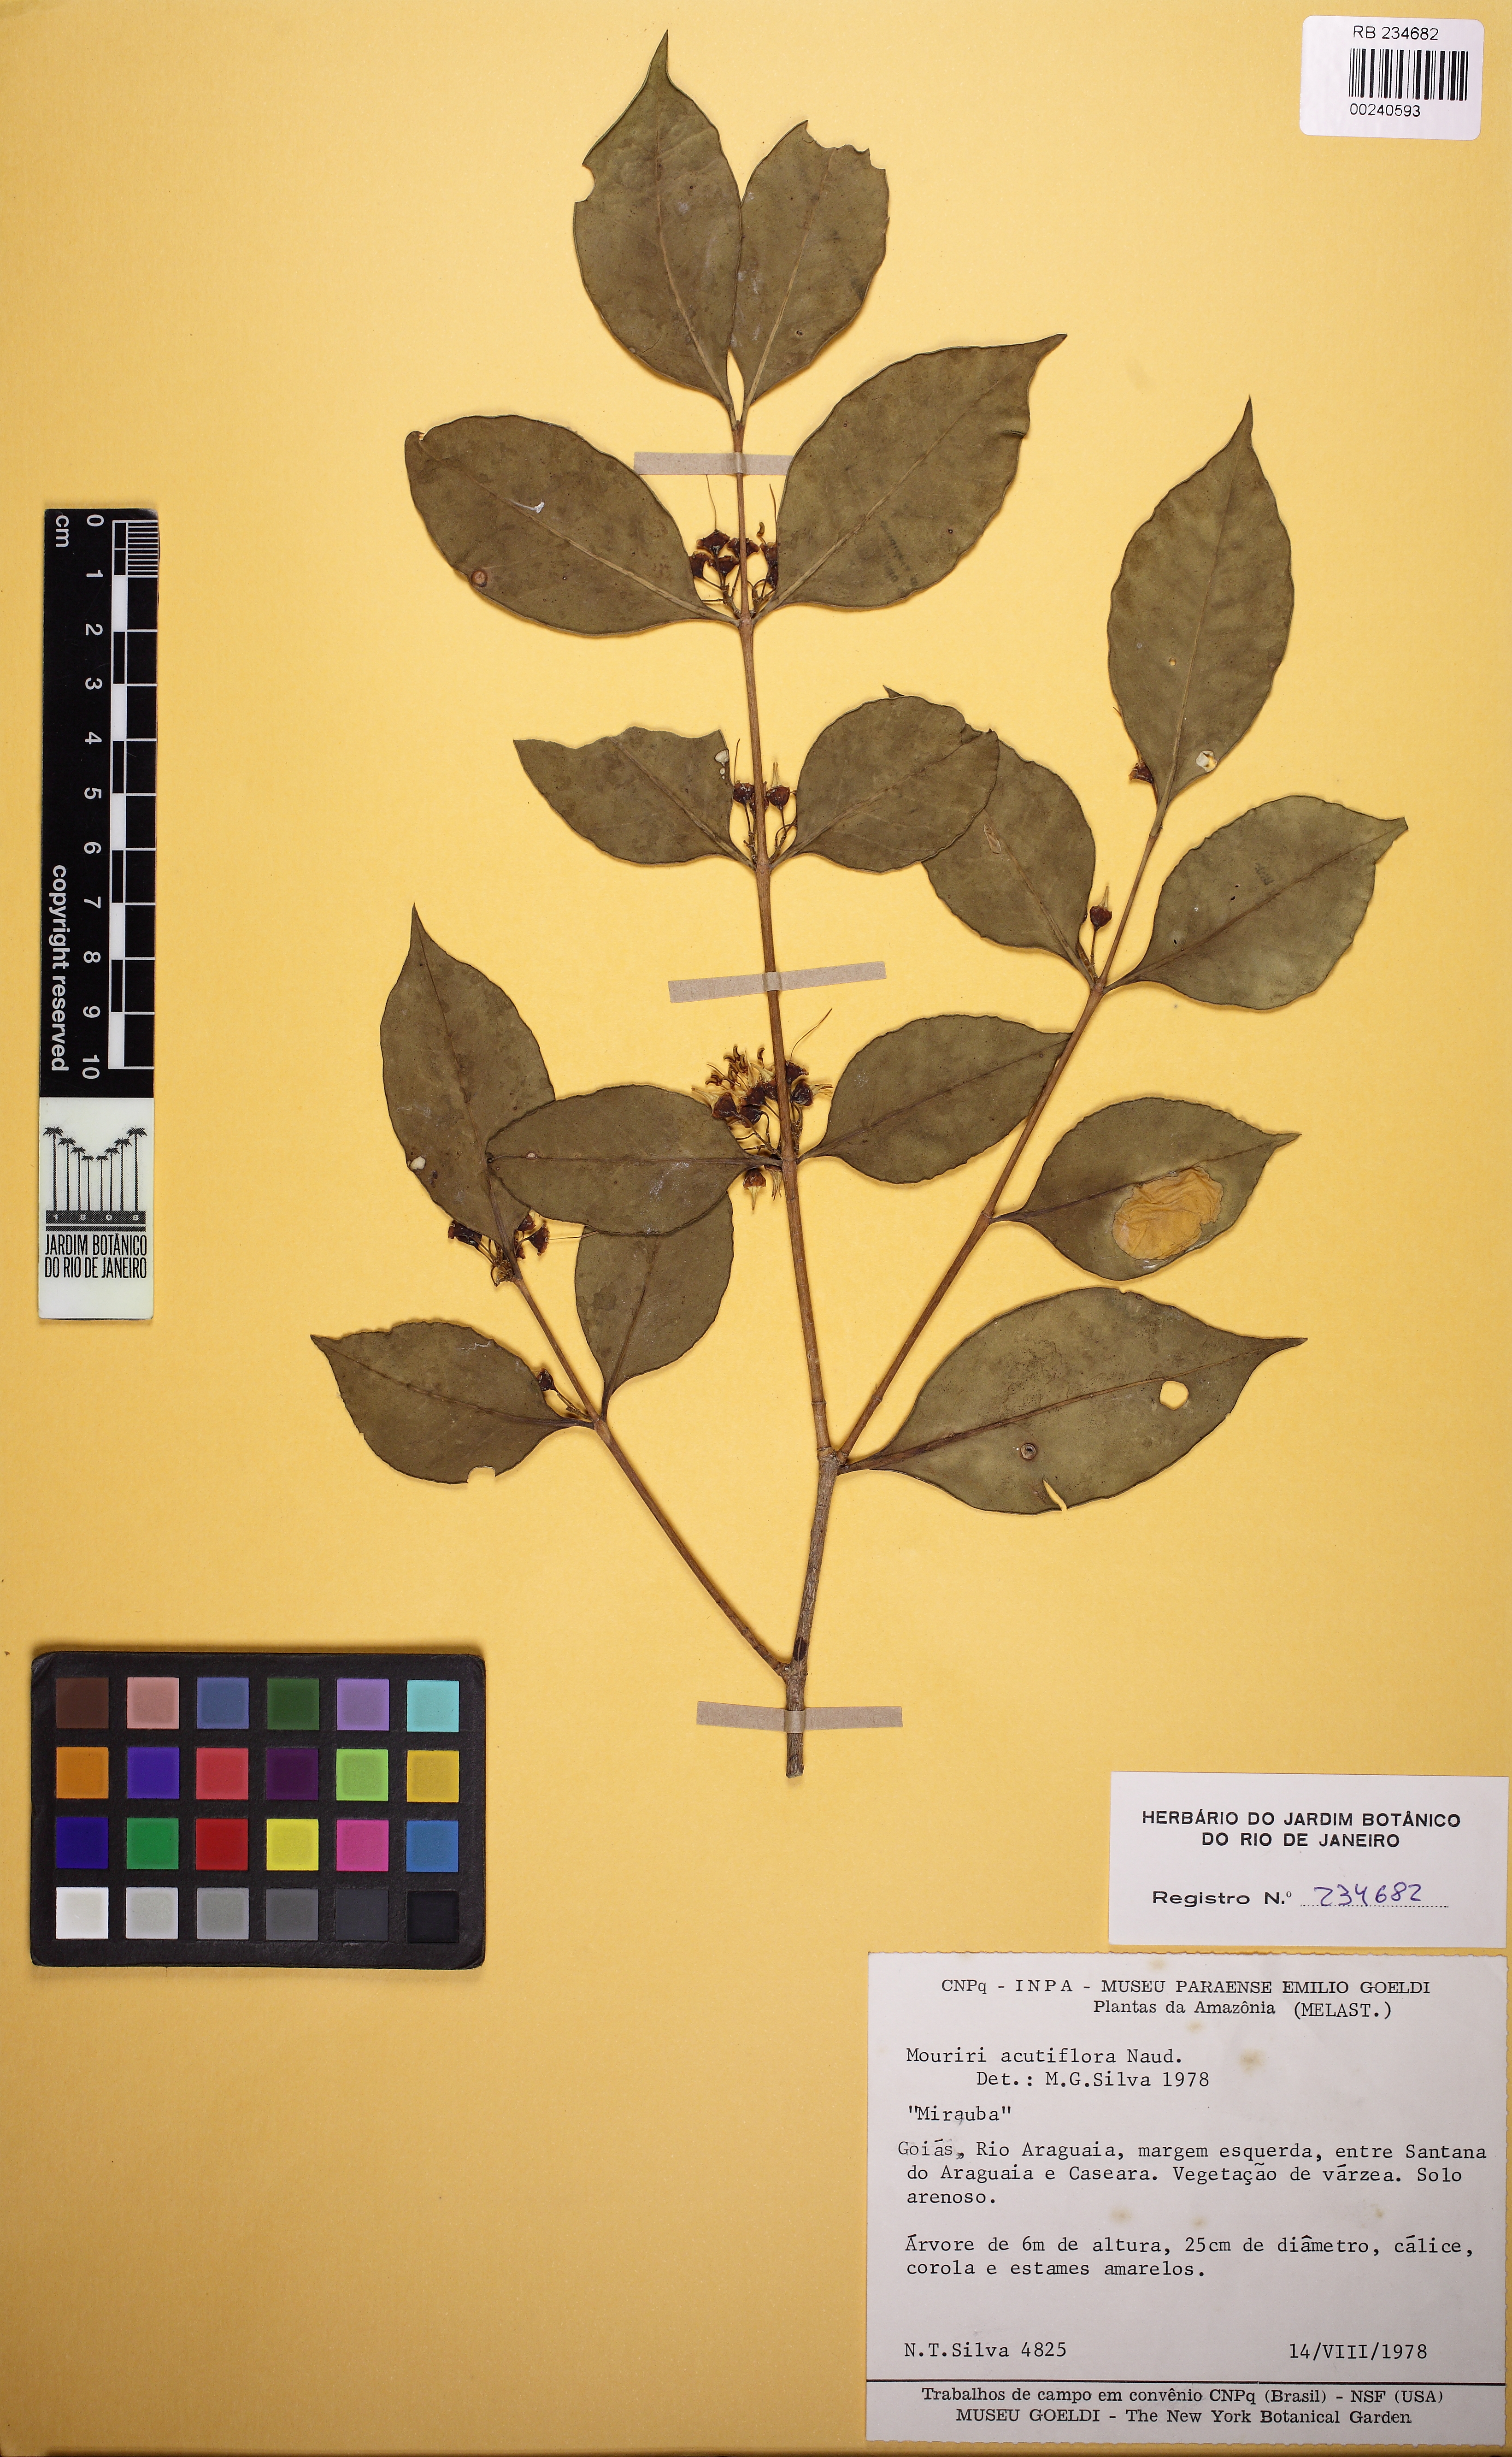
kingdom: Plantae
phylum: Tracheophyta
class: Magnoliopsida
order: Myrtales
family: Melastomataceae
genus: Mouriri
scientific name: Mouriri acutiflora
